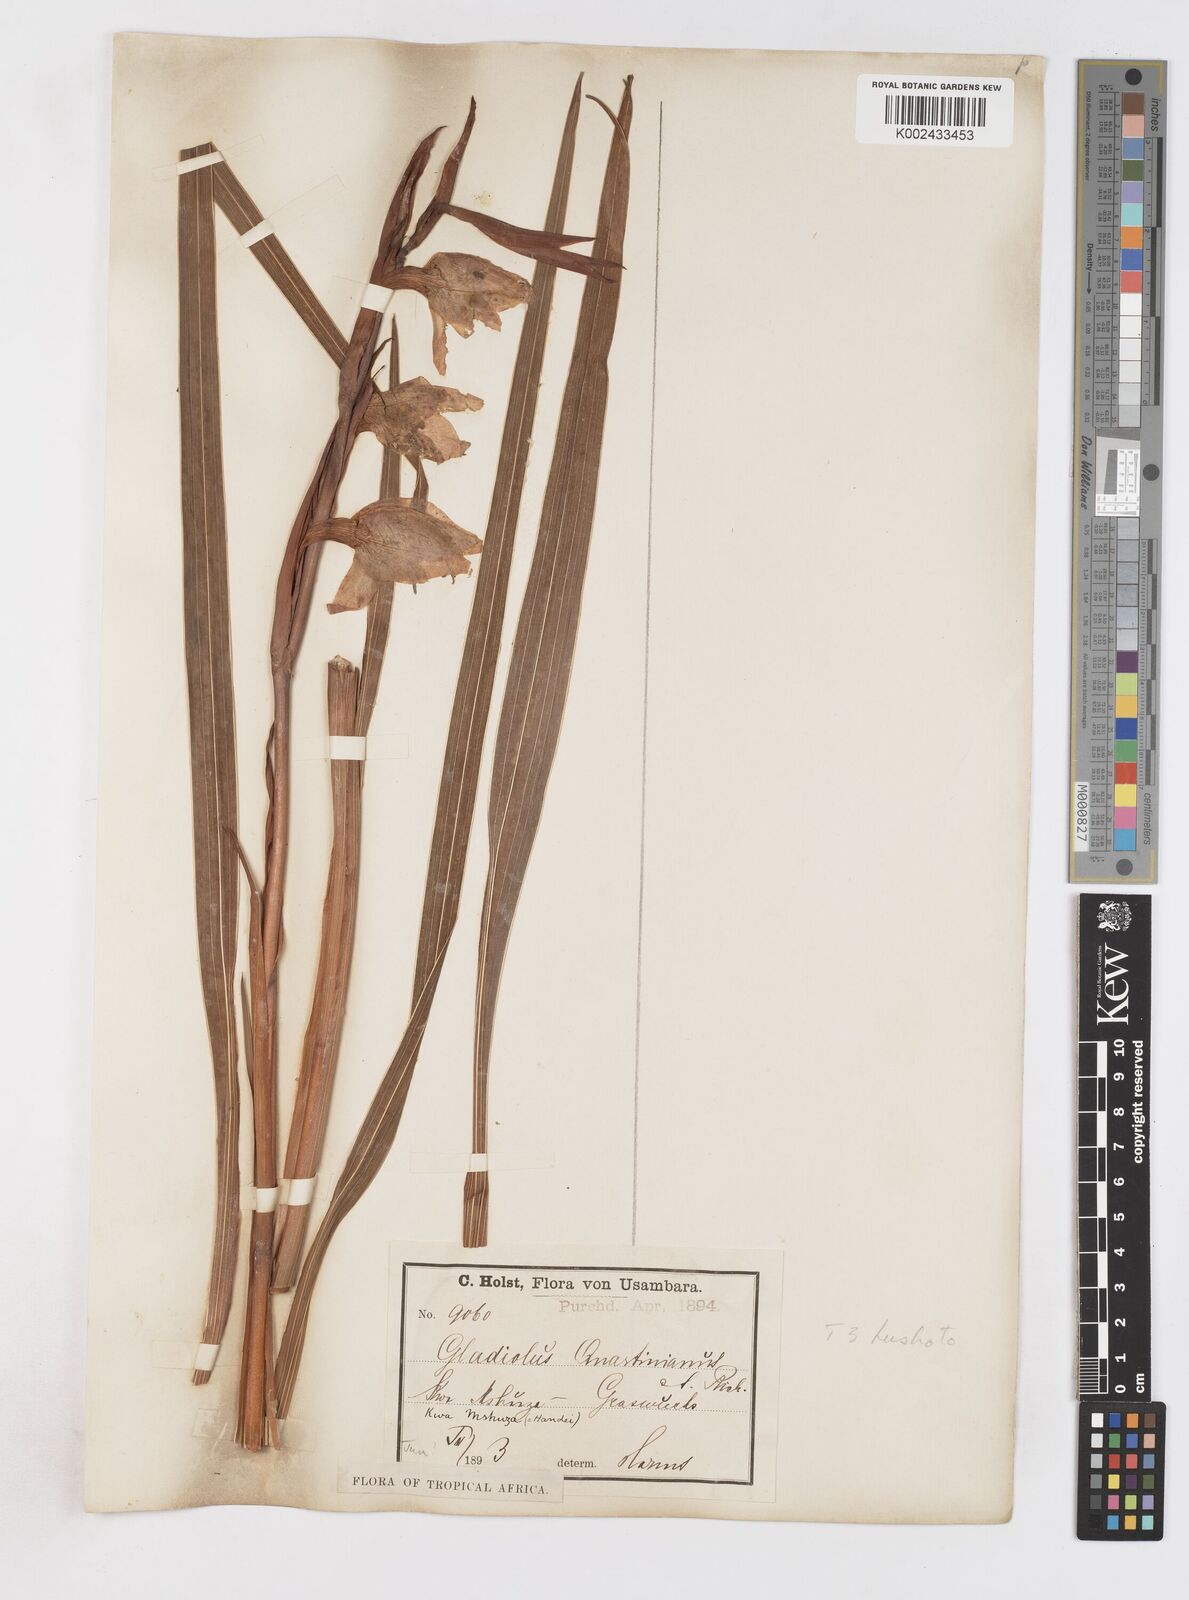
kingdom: Plantae
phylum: Tracheophyta
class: Liliopsida
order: Asparagales
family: Iridaceae
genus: Gladiolus
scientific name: Gladiolus dalenii
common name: Cornflag
